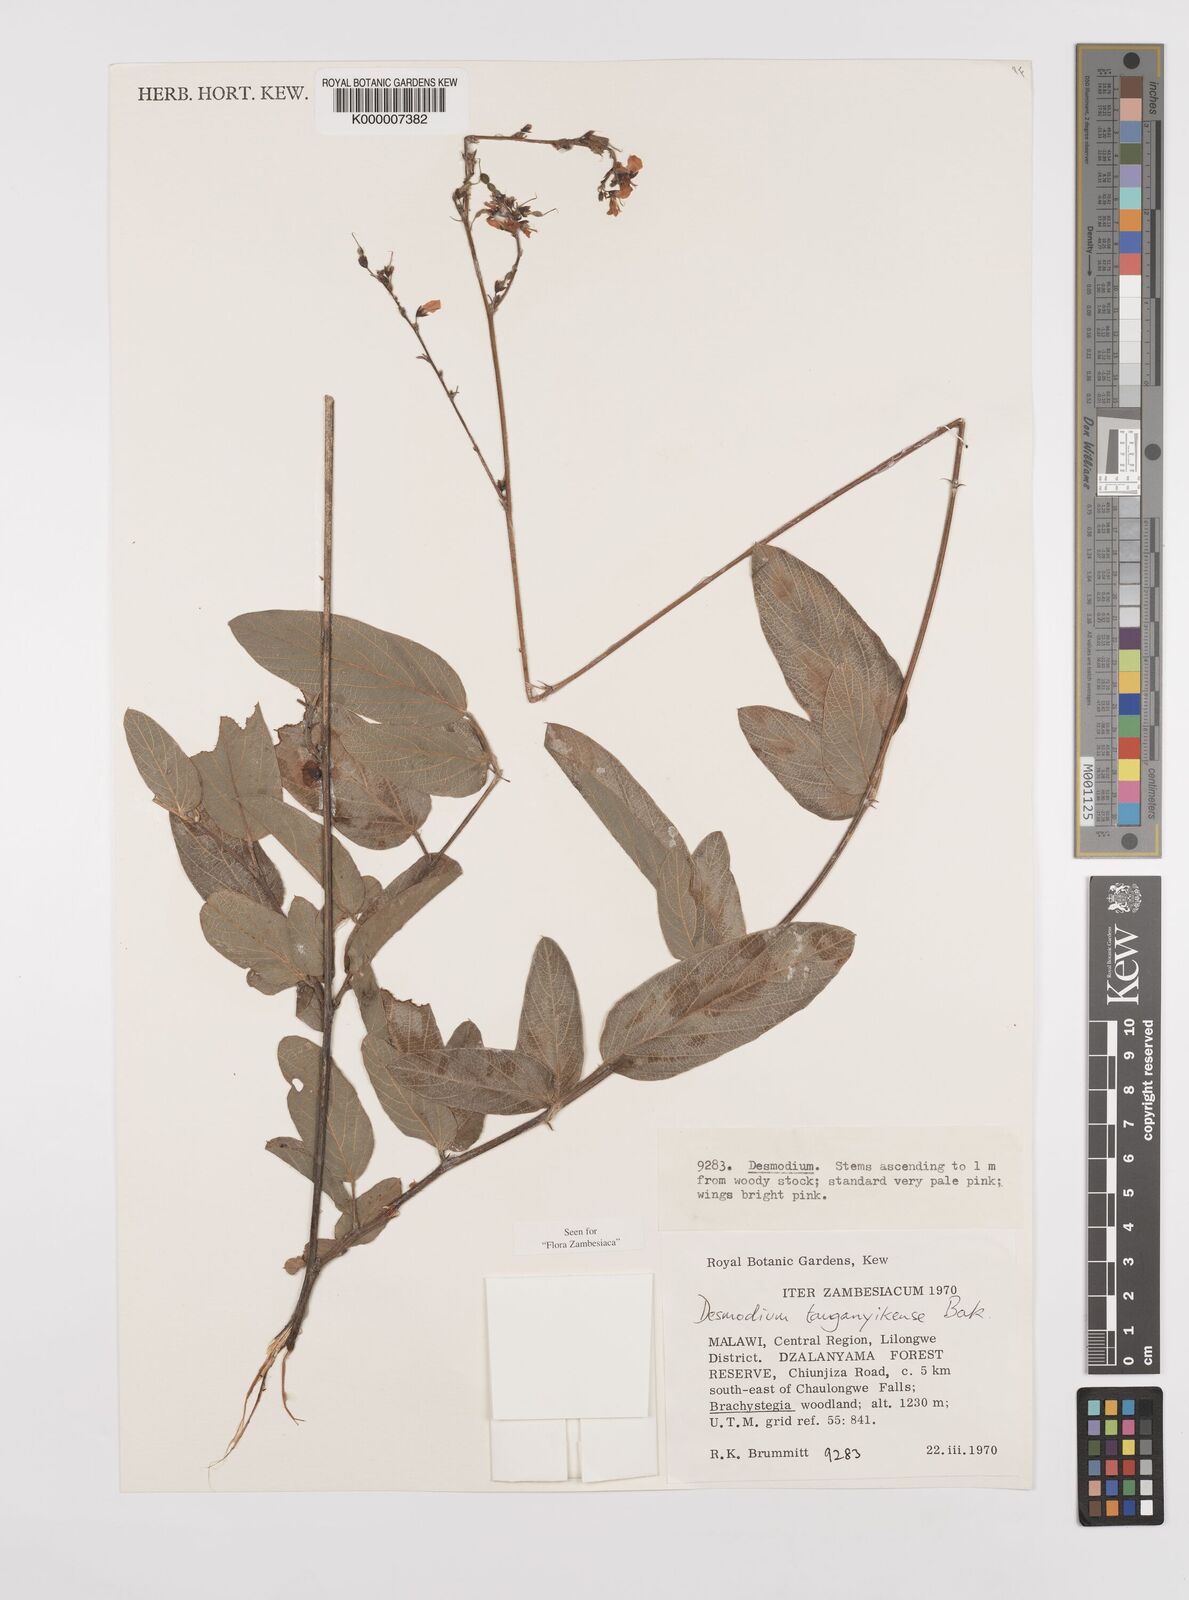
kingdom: Plantae
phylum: Tracheophyta
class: Magnoliopsida
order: Fabales
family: Fabaceae
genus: Pleurolobus
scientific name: Pleurolobus tanganyikensis
